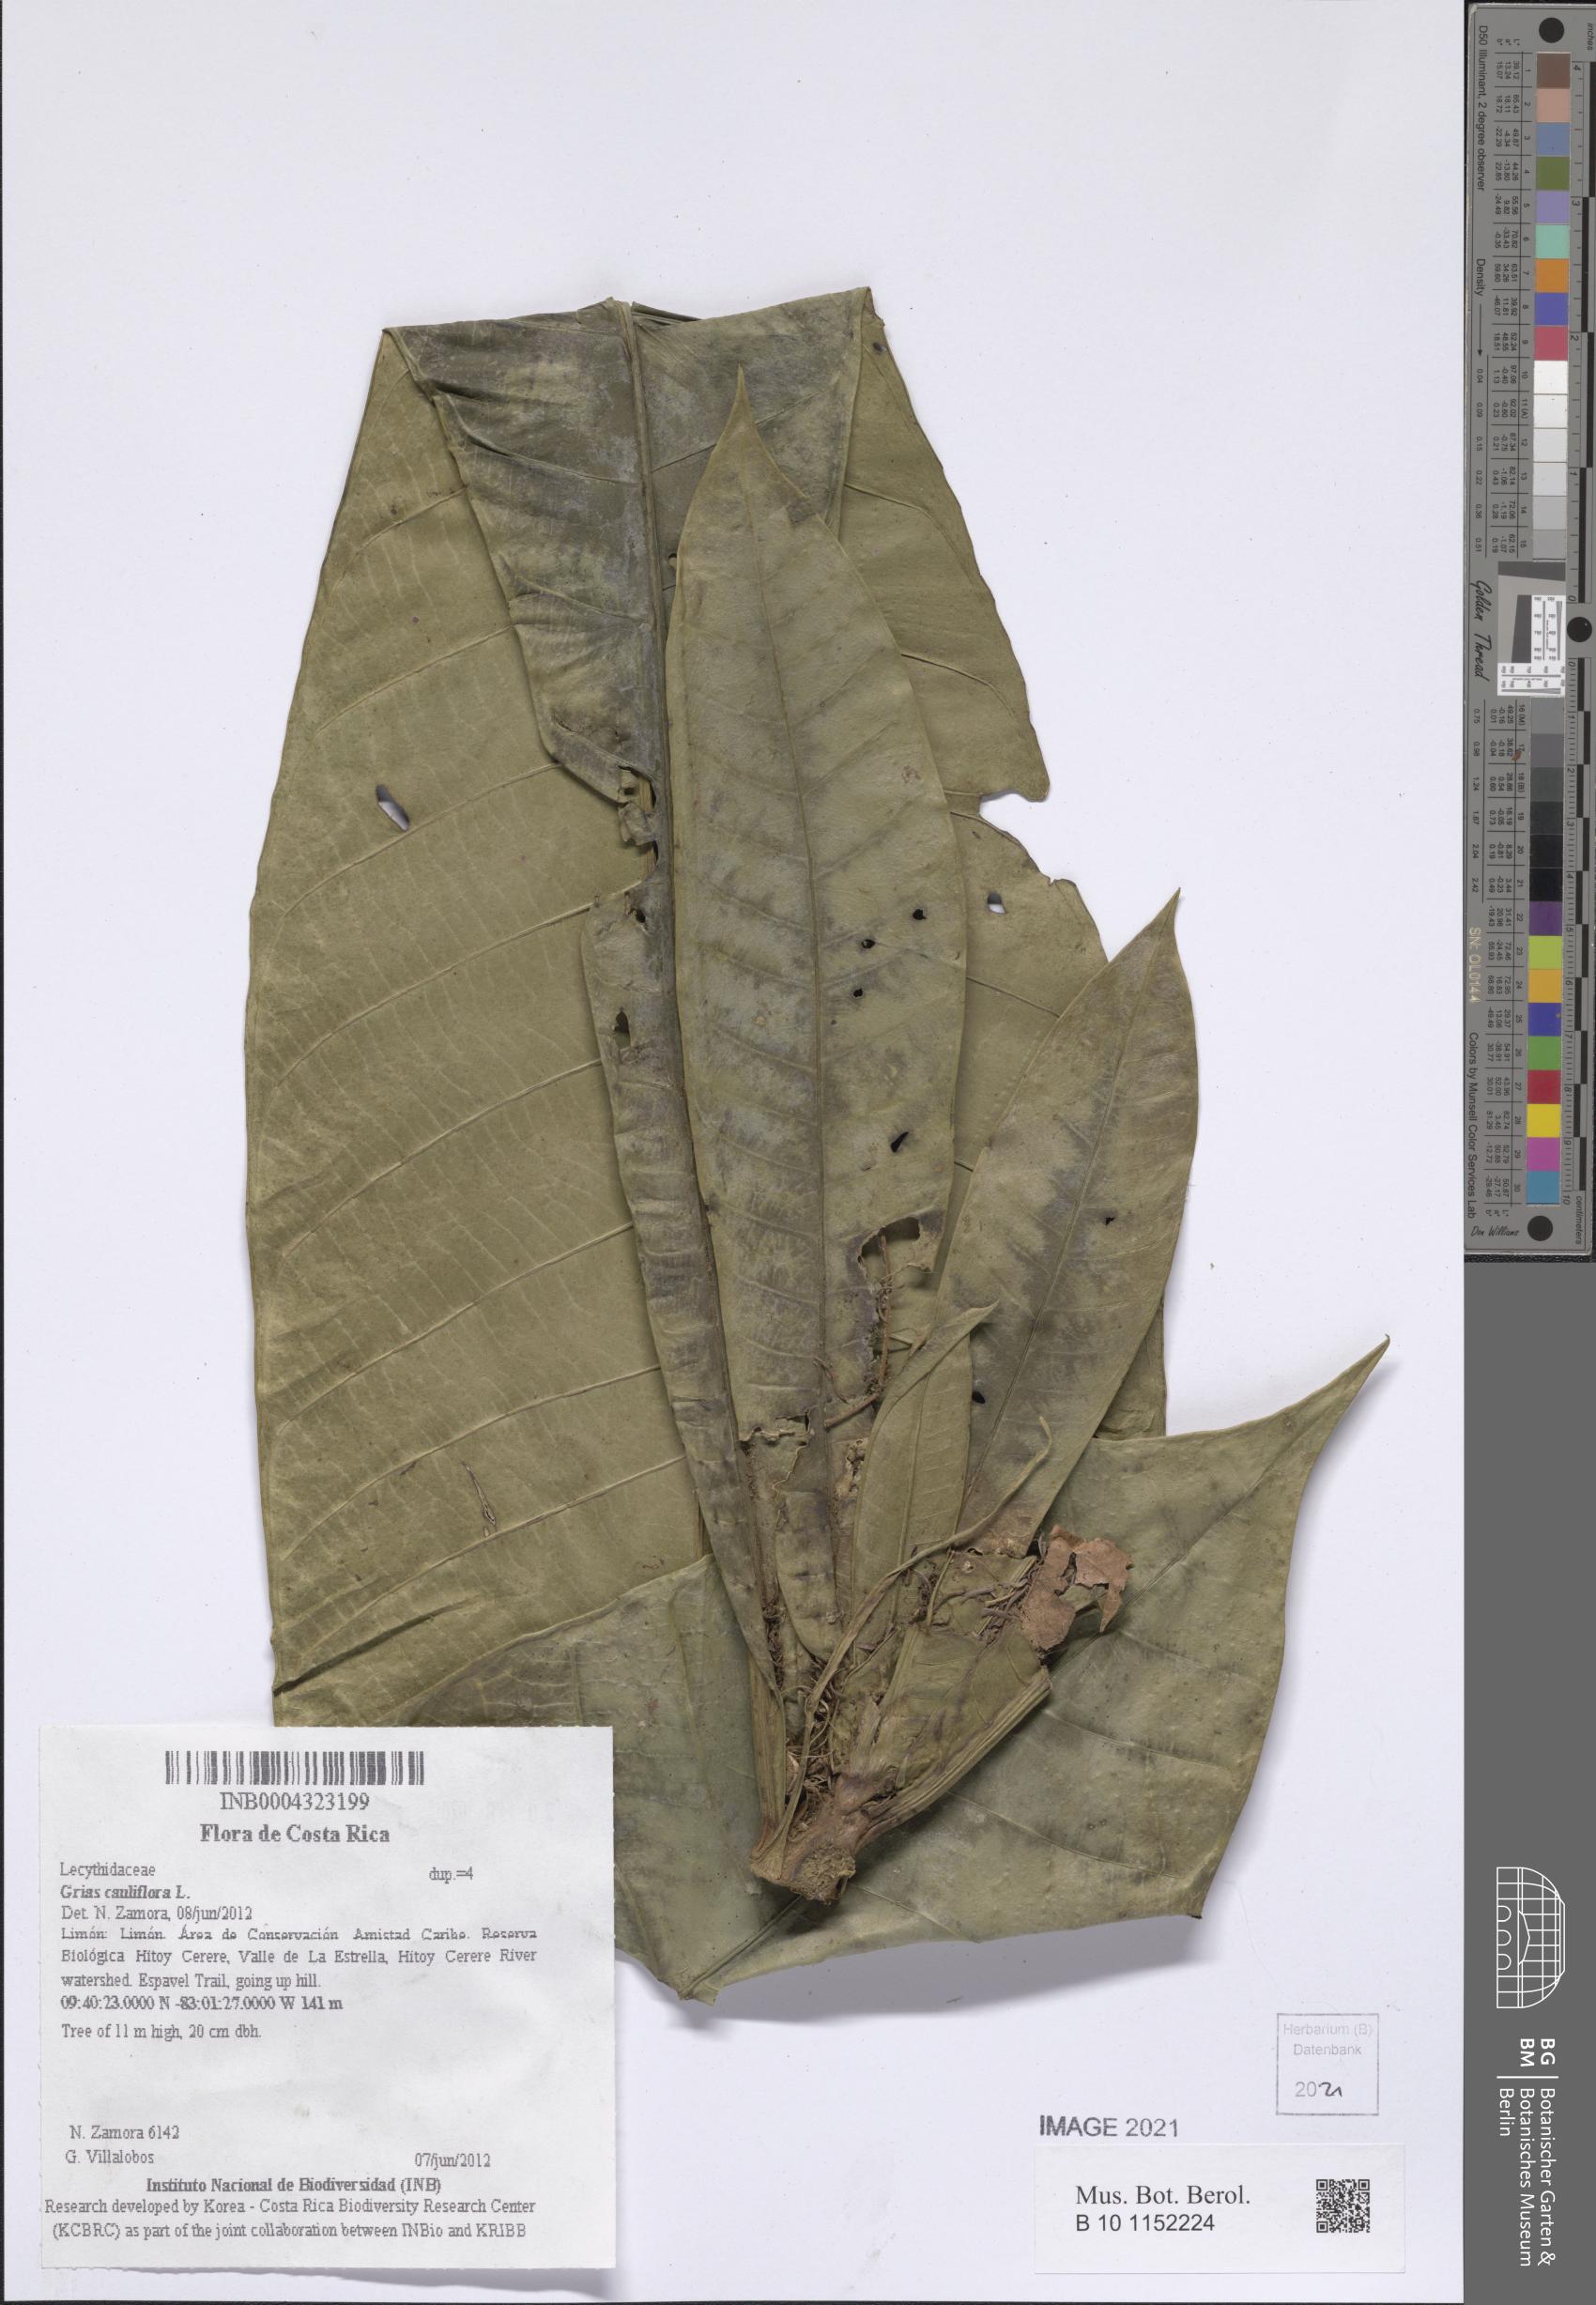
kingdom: Plantae
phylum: Tracheophyta
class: Magnoliopsida
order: Ericales
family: Lecythidaceae
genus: Grias
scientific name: Grias cauliflora
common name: Anchovy-pear
